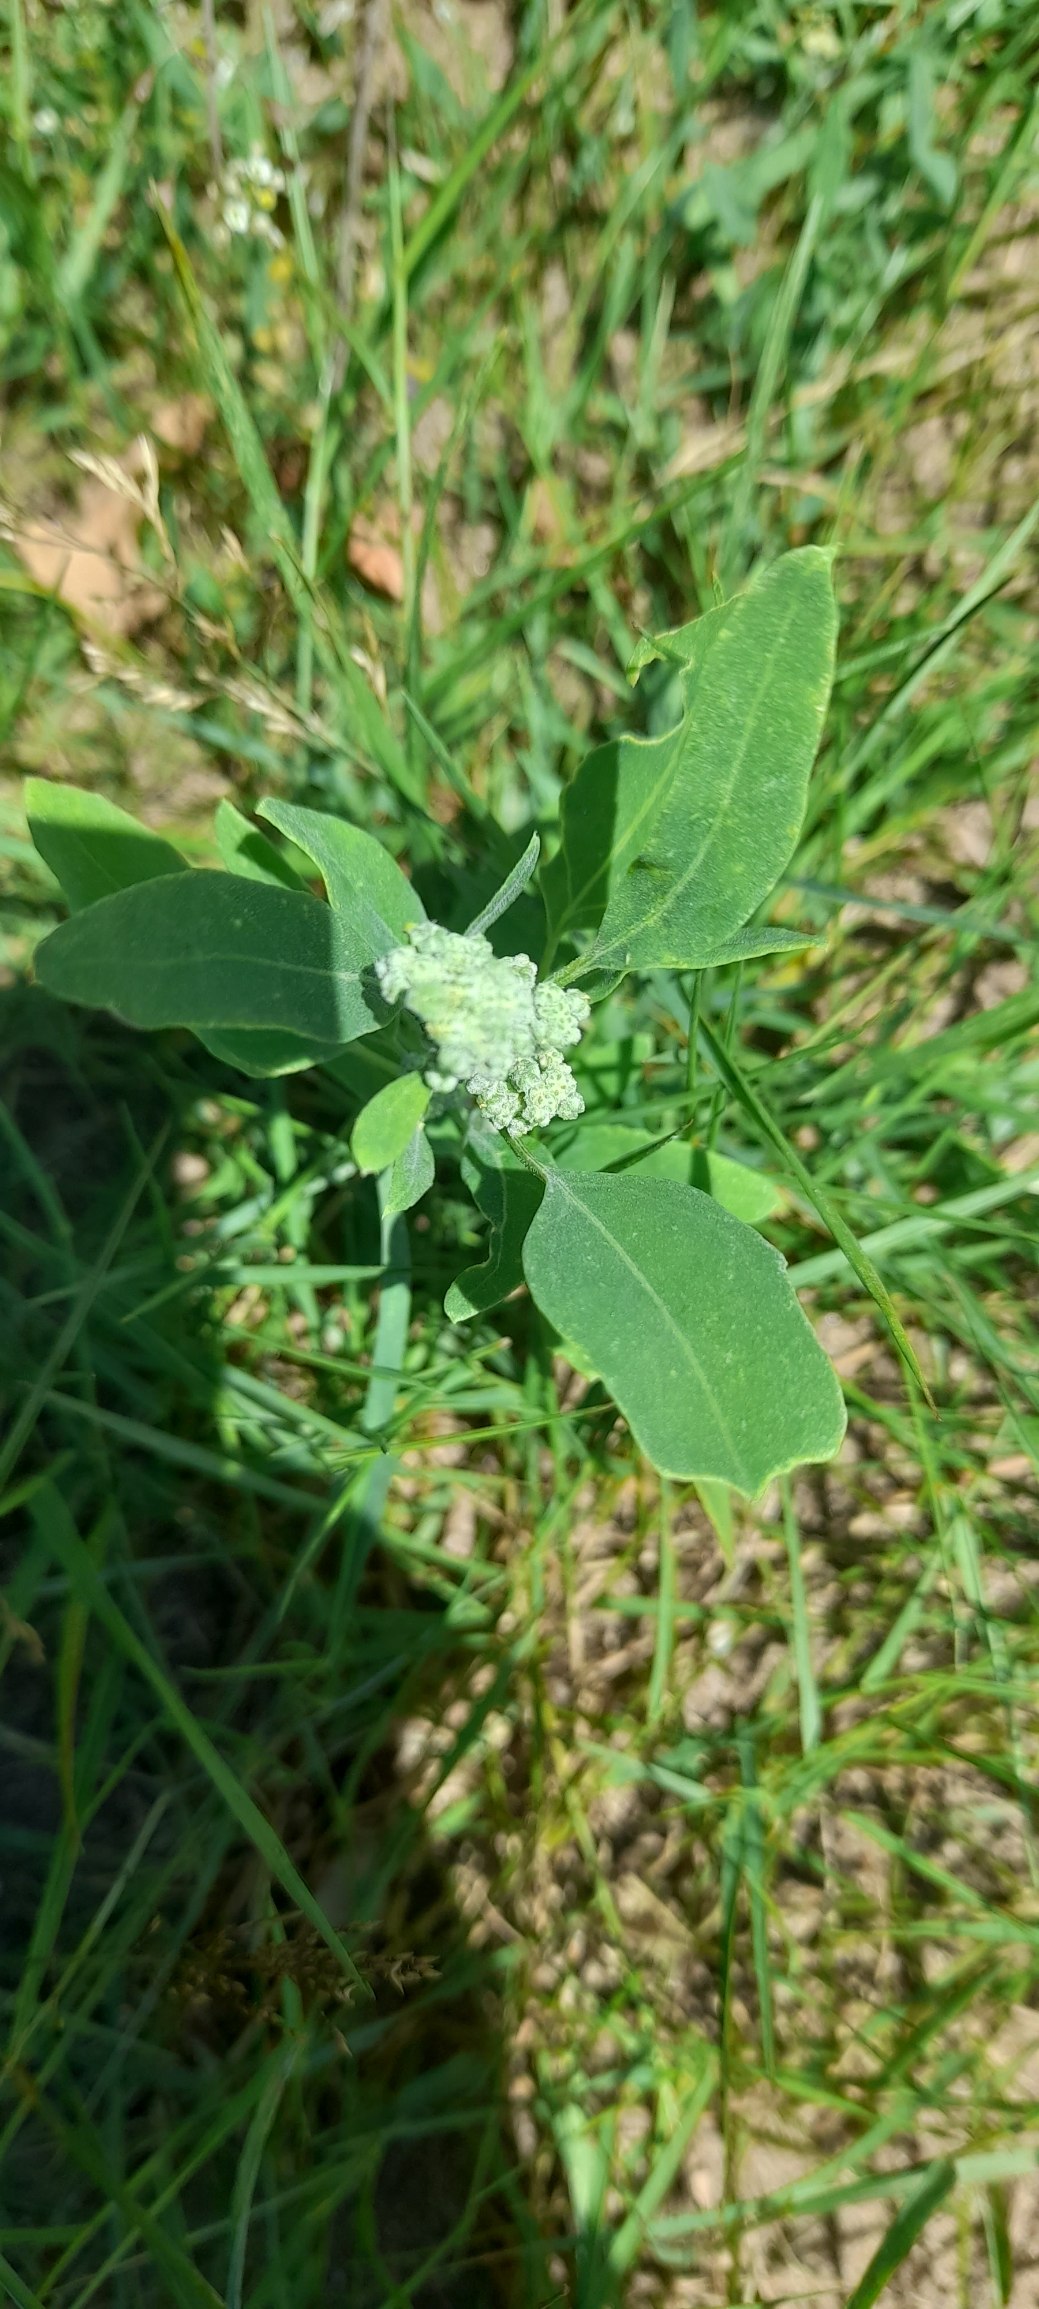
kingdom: Plantae
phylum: Tracheophyta
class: Magnoliopsida
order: Caryophyllales
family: Amaranthaceae
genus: Chenopodium
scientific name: Chenopodium album
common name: Hvidmelet gåsefod
